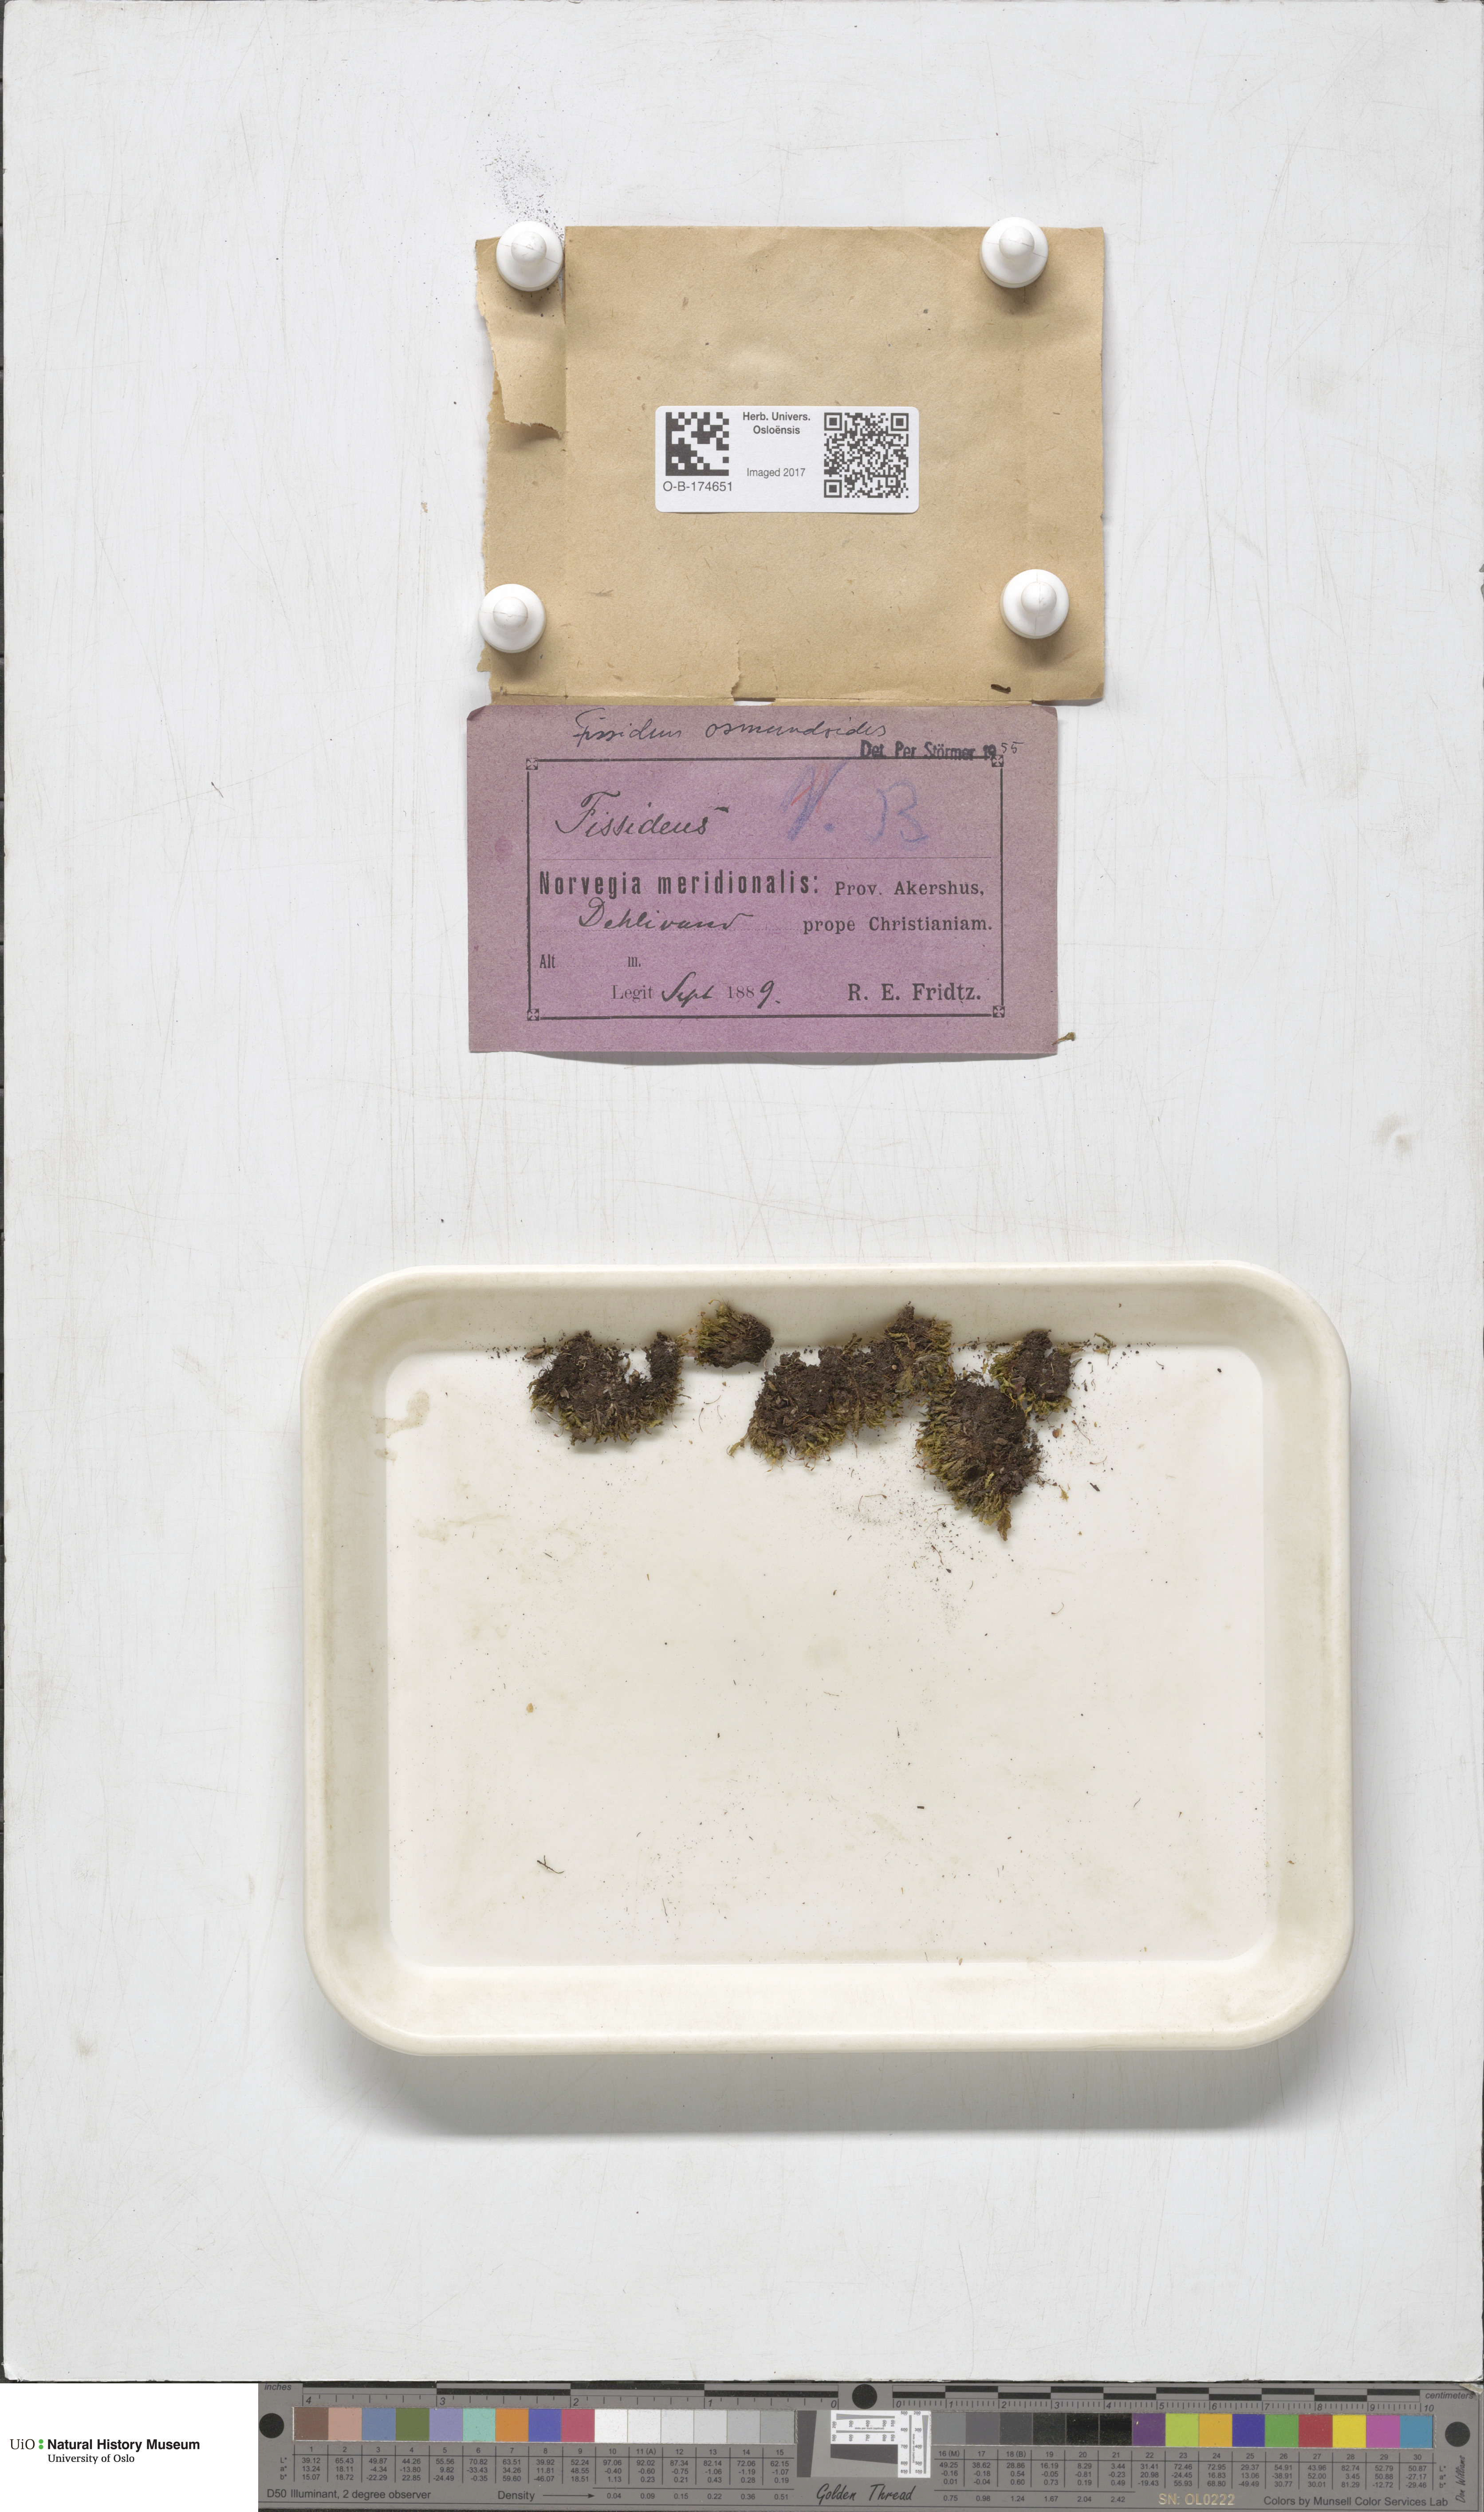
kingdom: Plantae
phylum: Bryophyta
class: Bryopsida
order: Dicranales
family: Fissidentaceae
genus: Fissidens
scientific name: Fissidens osmundoides
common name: Purple-stalked pocket moss
